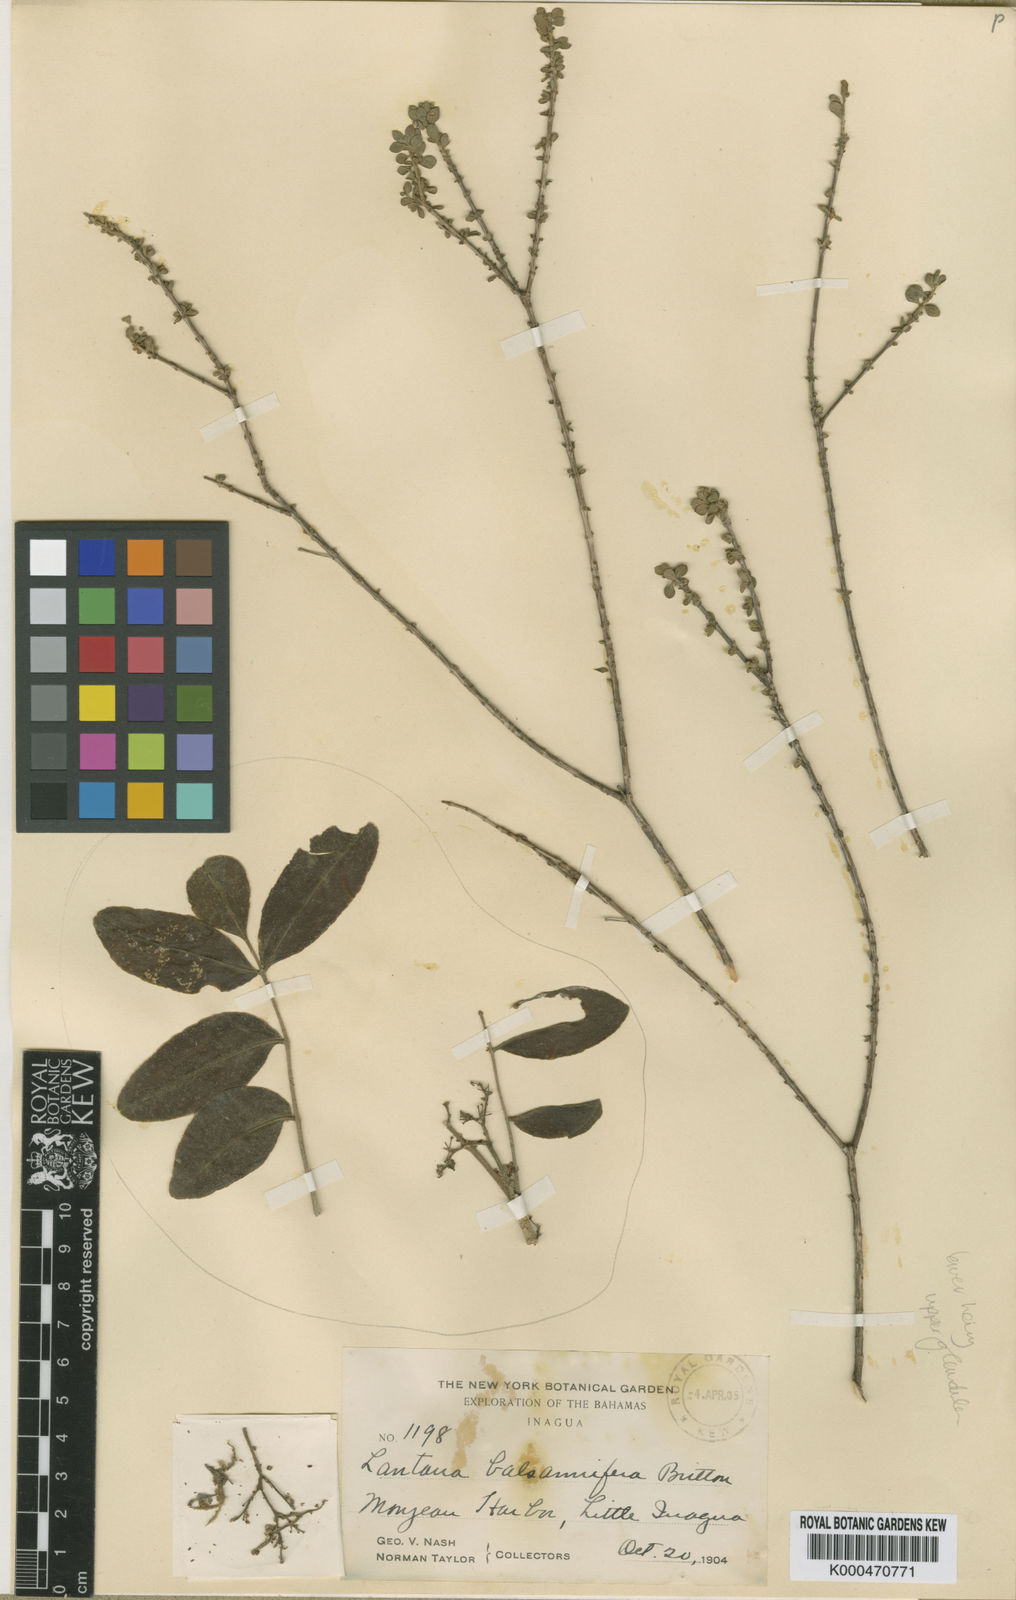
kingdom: Plantae
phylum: Tracheophyta
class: Magnoliopsida
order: Lamiales
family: Verbenaceae
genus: Lantana
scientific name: Lantana balsamifera
